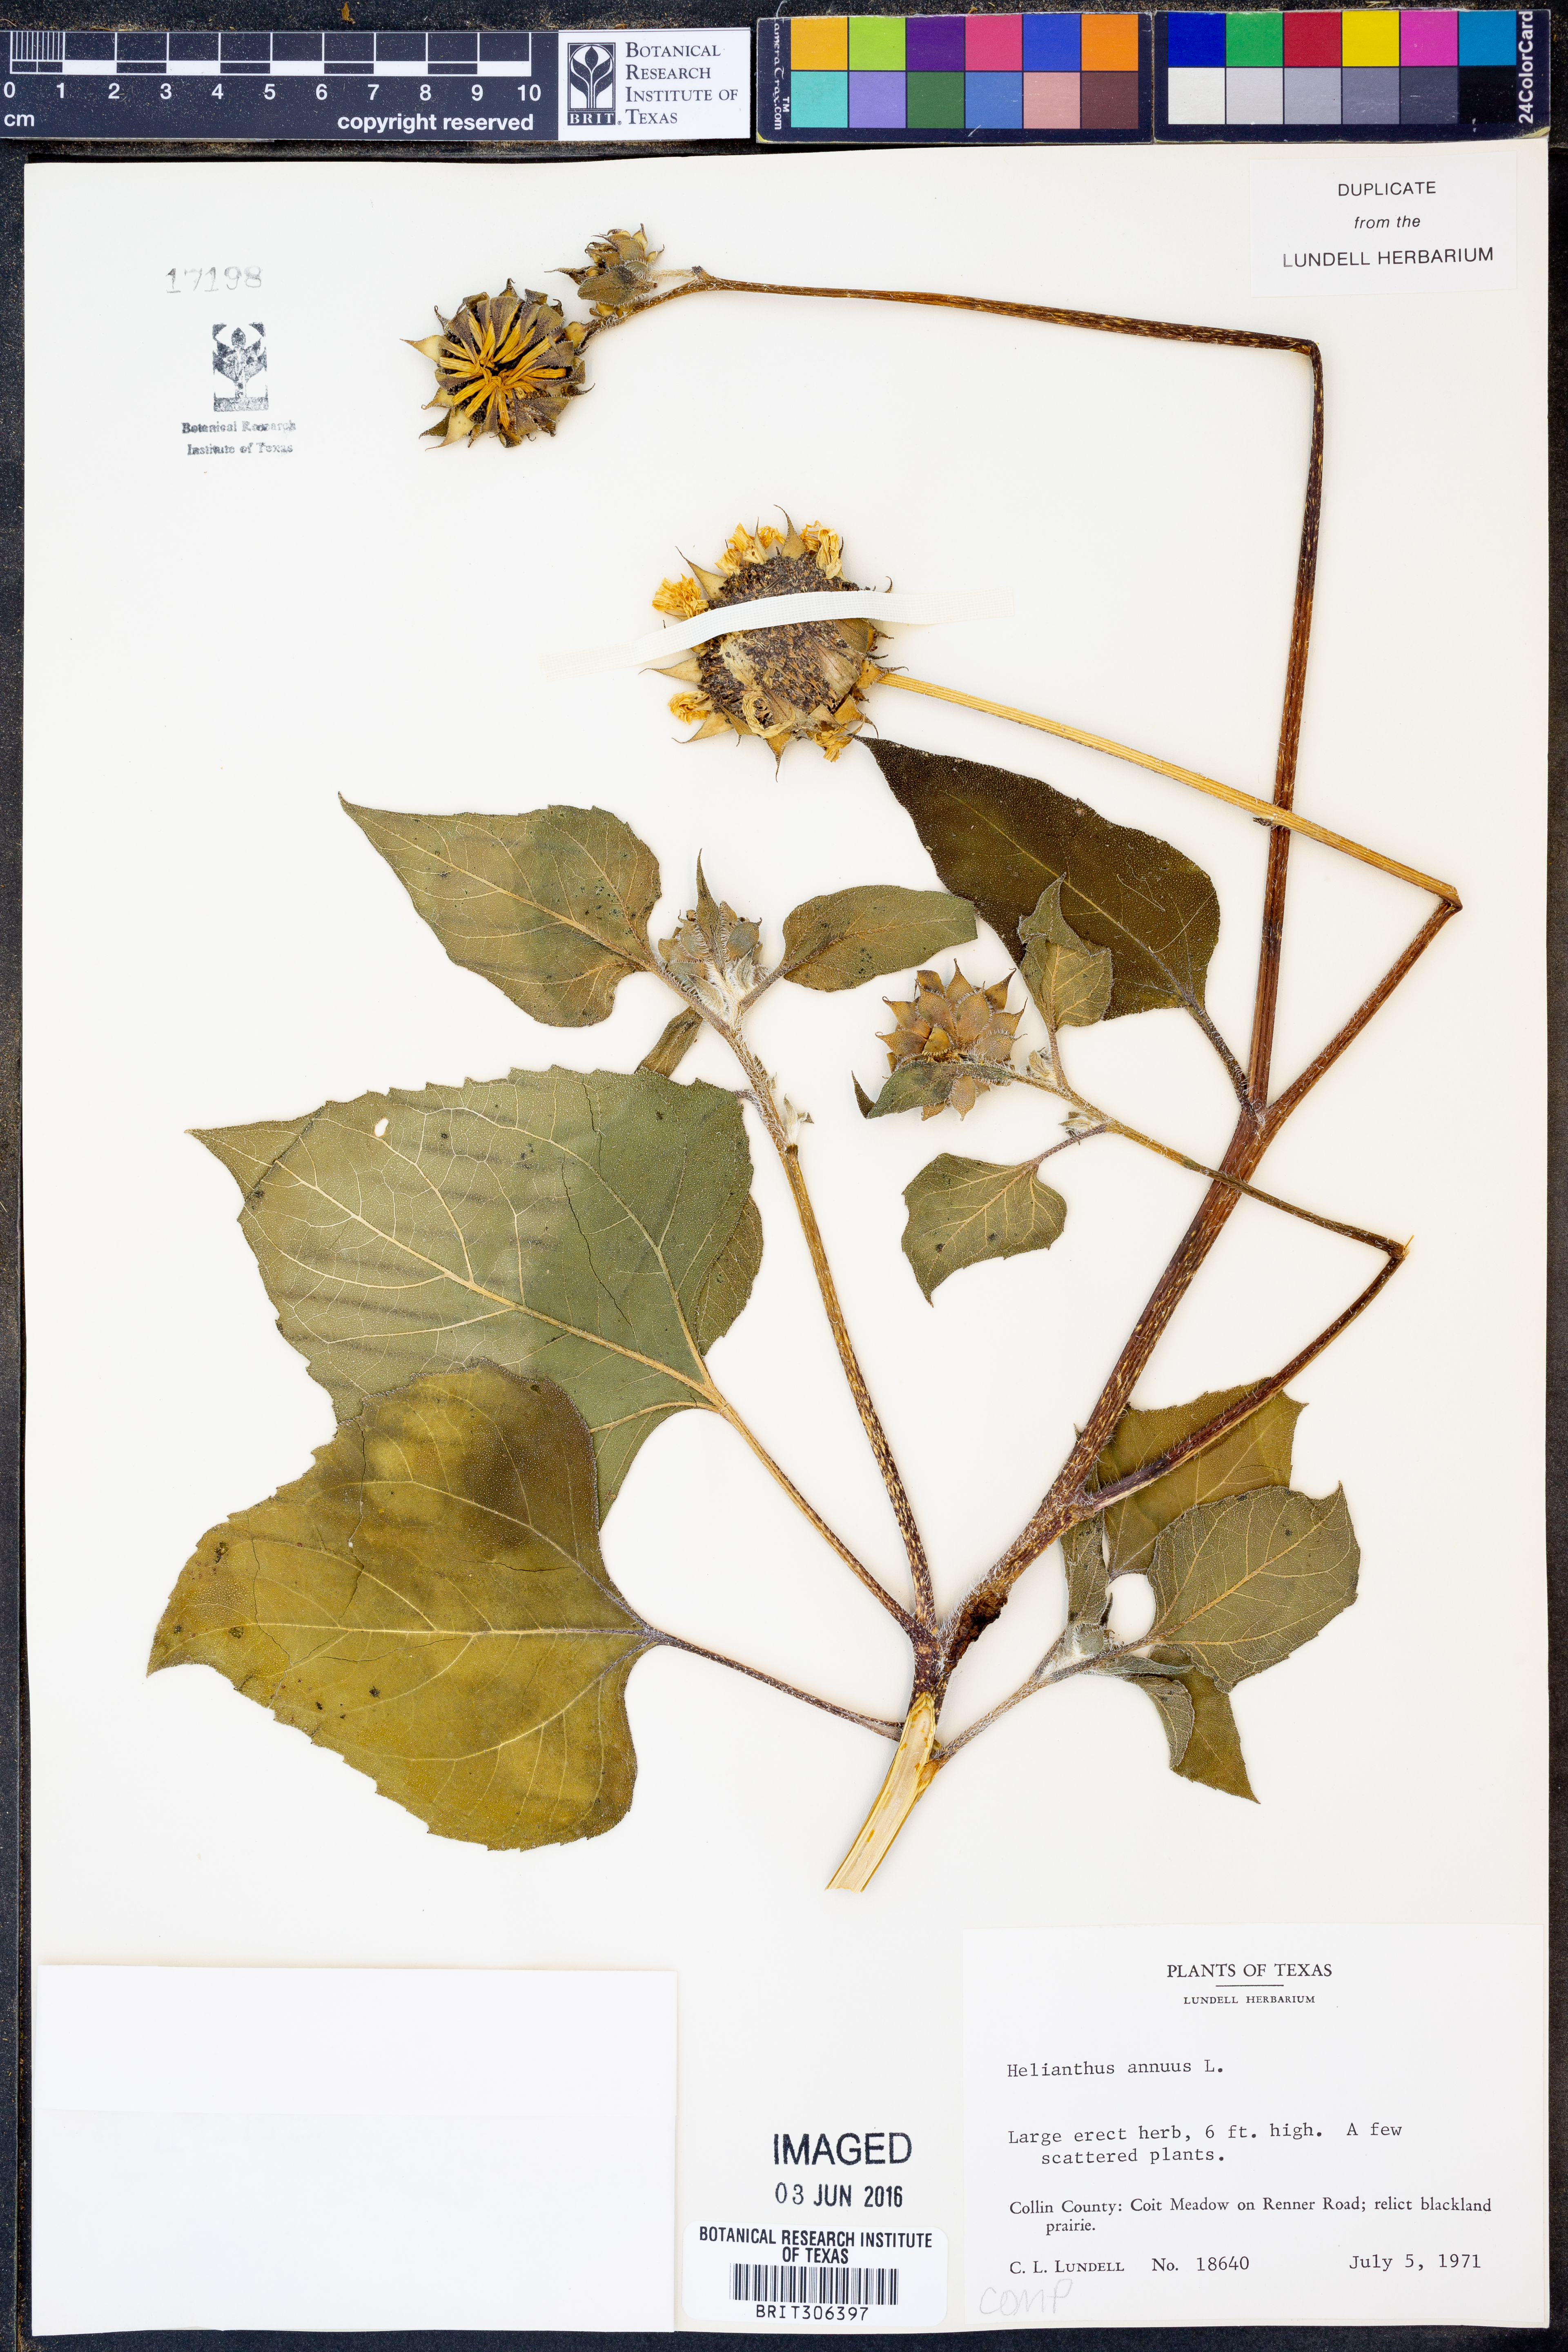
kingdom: Plantae
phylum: Tracheophyta
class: Magnoliopsida
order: Asterales
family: Asteraceae
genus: Helianthus
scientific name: Helianthus annuus
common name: Sunflower
